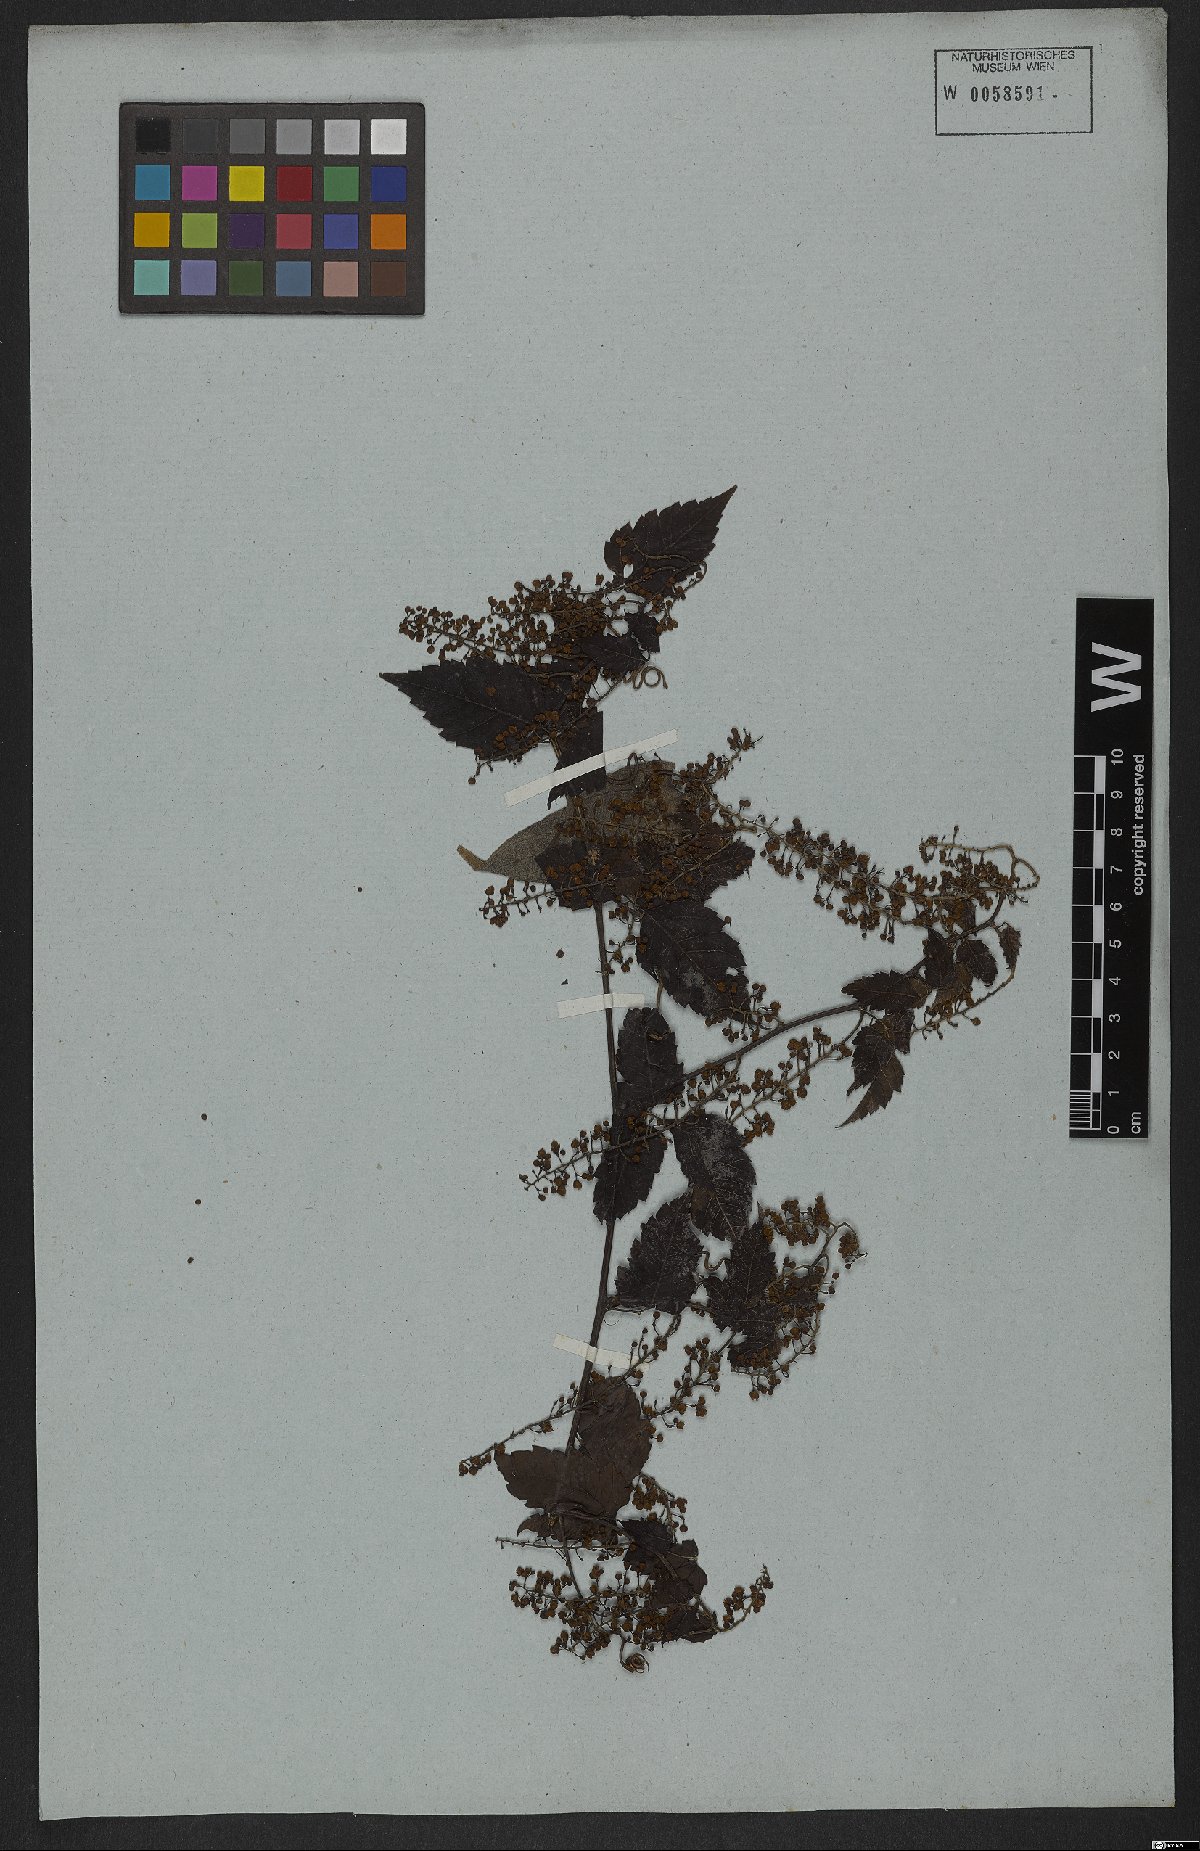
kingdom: Plantae
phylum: Tracheophyta
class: Magnoliopsida
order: Sapindales
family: Sapindaceae
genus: Urvillea
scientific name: Urvillea stipitata
